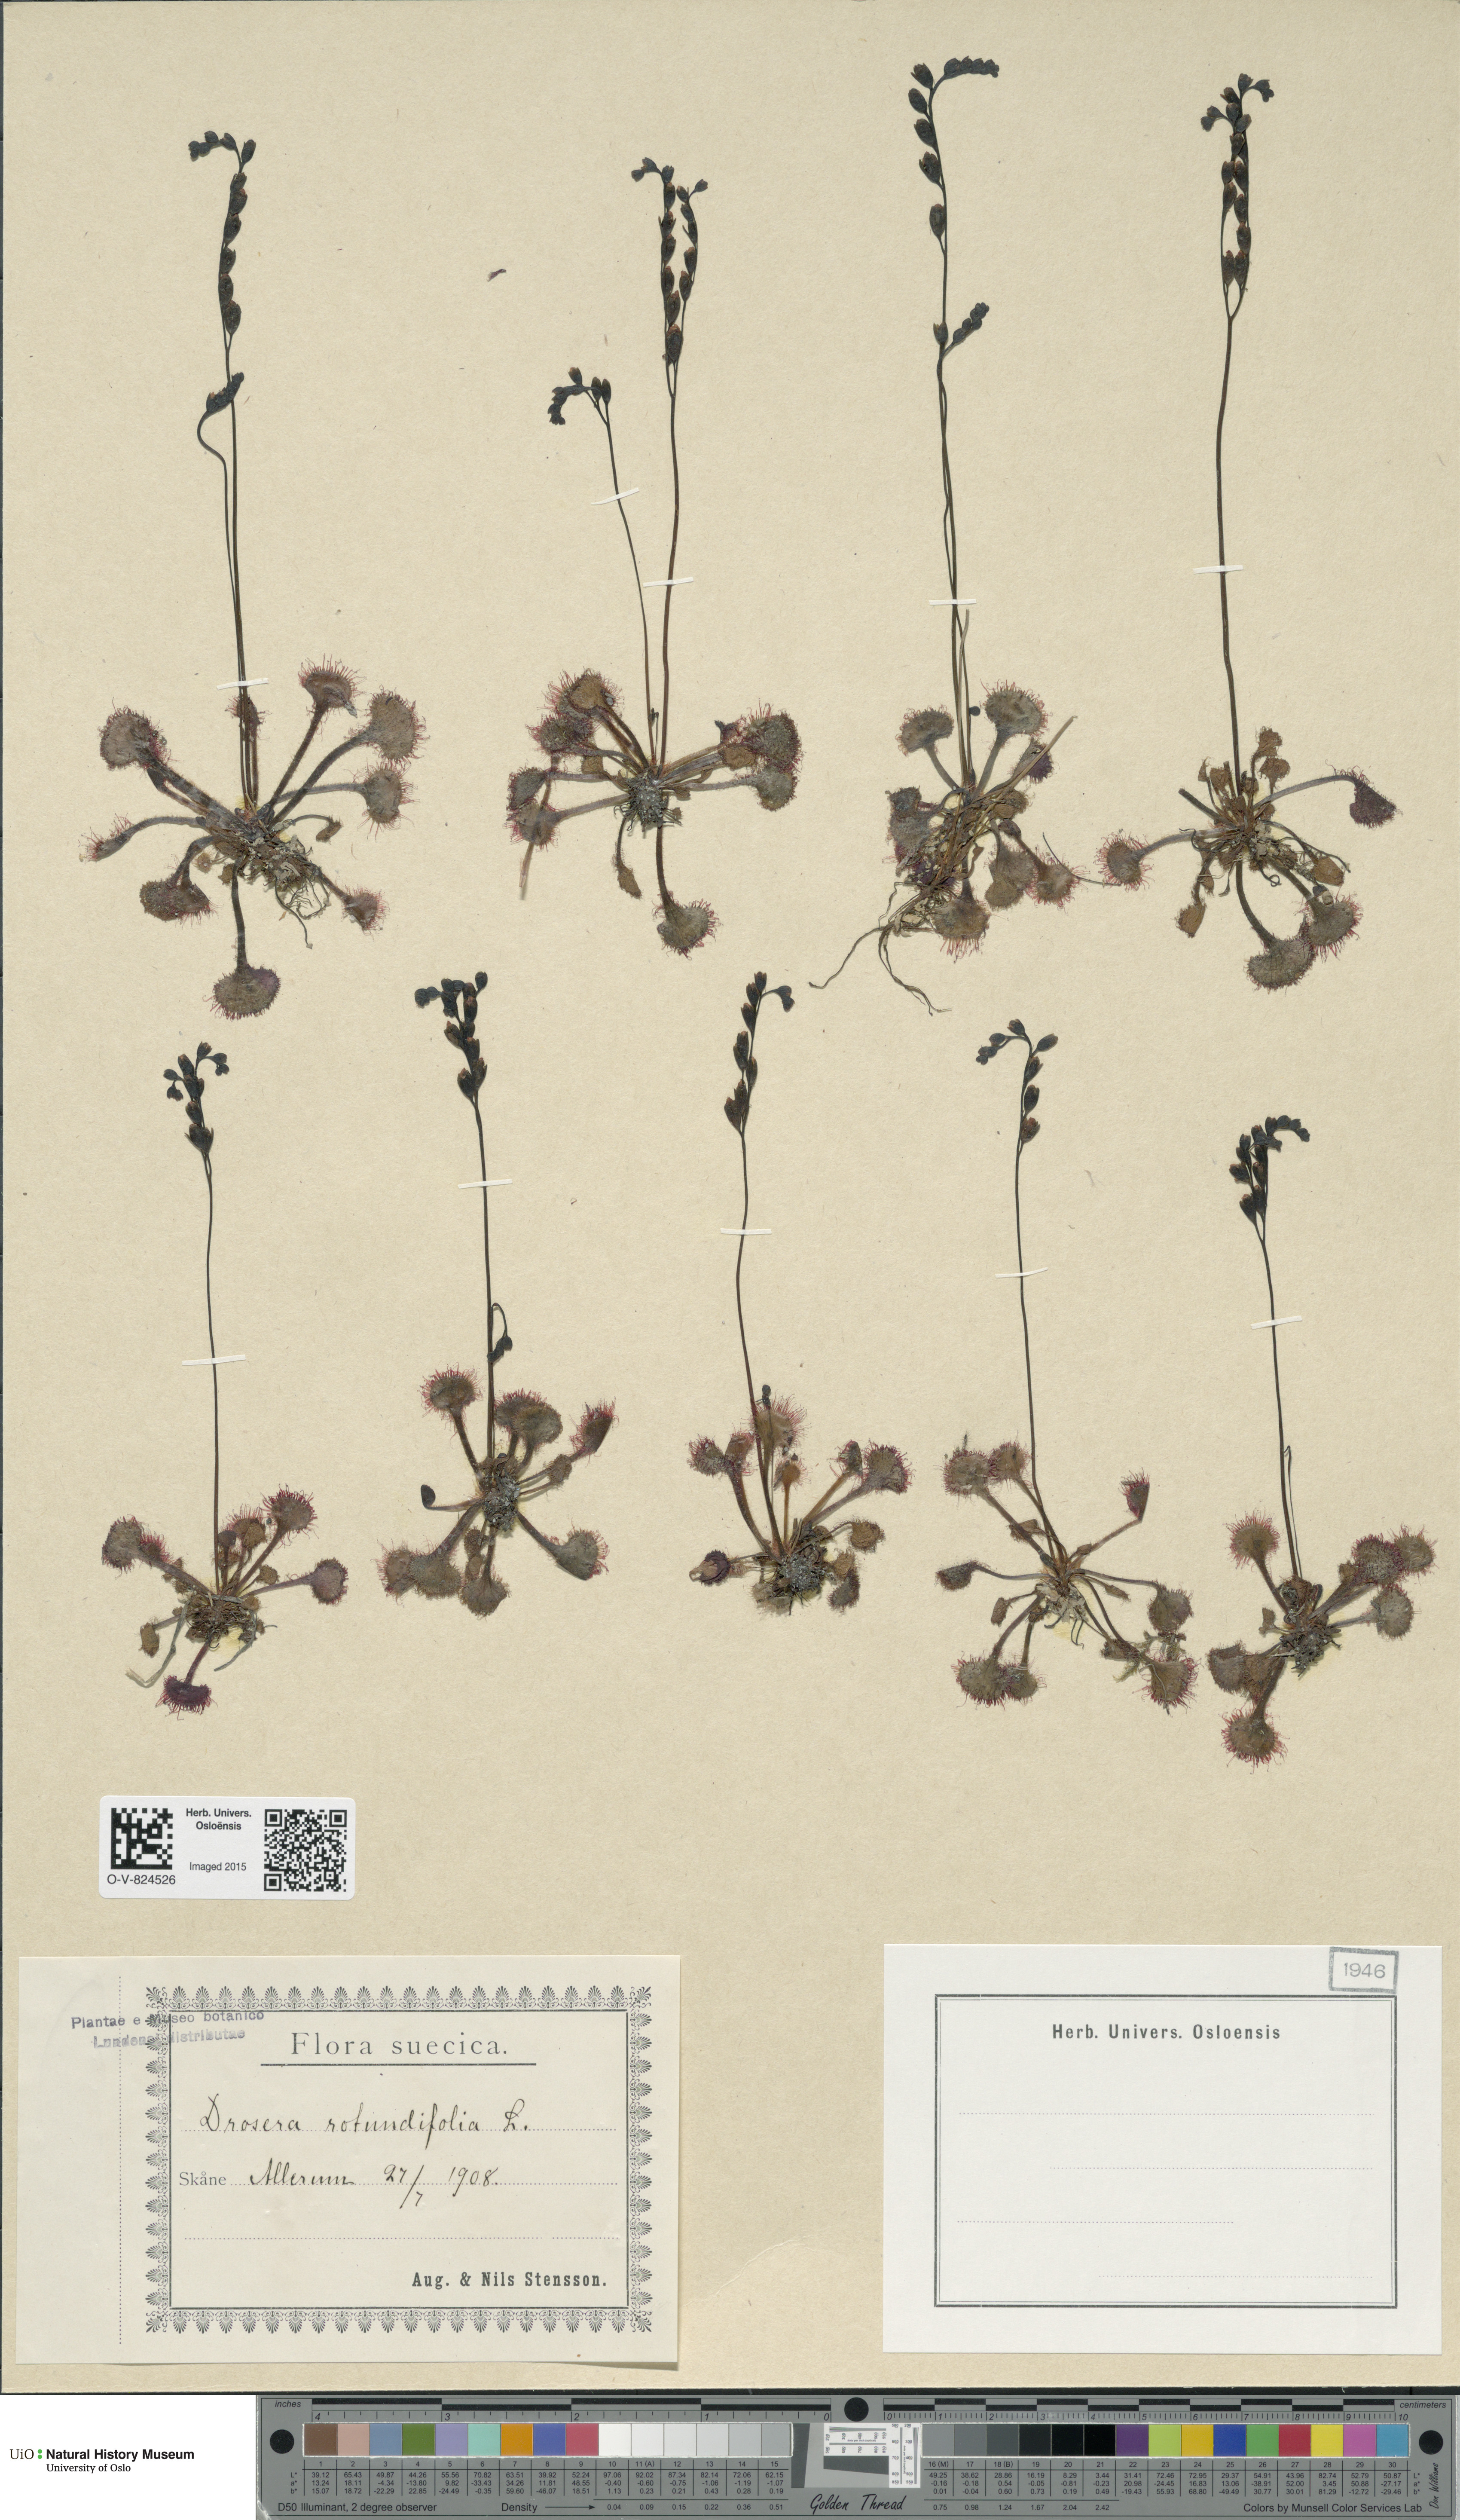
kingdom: Plantae
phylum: Tracheophyta
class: Magnoliopsida
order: Caryophyllales
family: Droseraceae
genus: Drosera
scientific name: Drosera rotundifolia
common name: Round-leaved sundew
